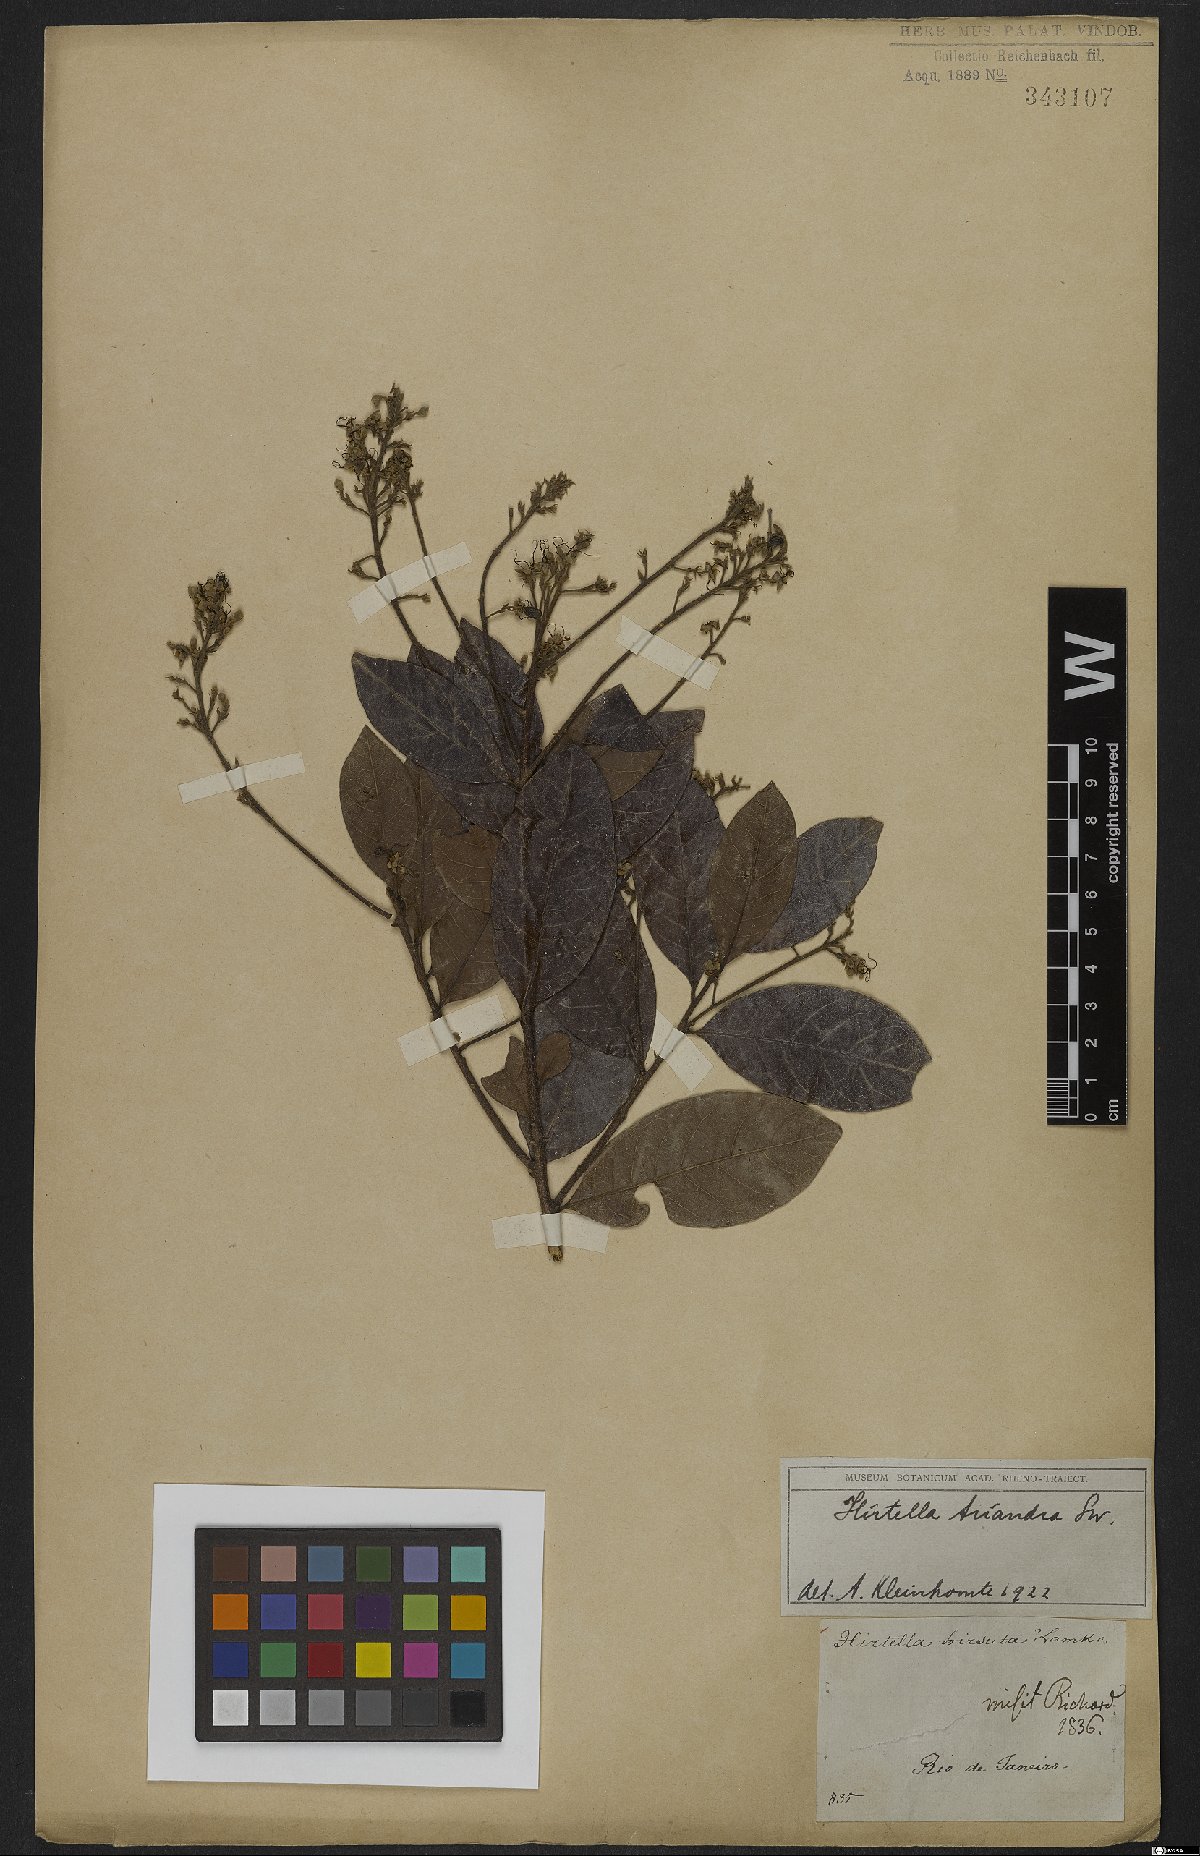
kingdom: Plantae
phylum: Tracheophyta
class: Magnoliopsida
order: Malpighiales
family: Chrysobalanaceae
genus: Hirtella
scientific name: Hirtella triandra
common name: Hairy plum
